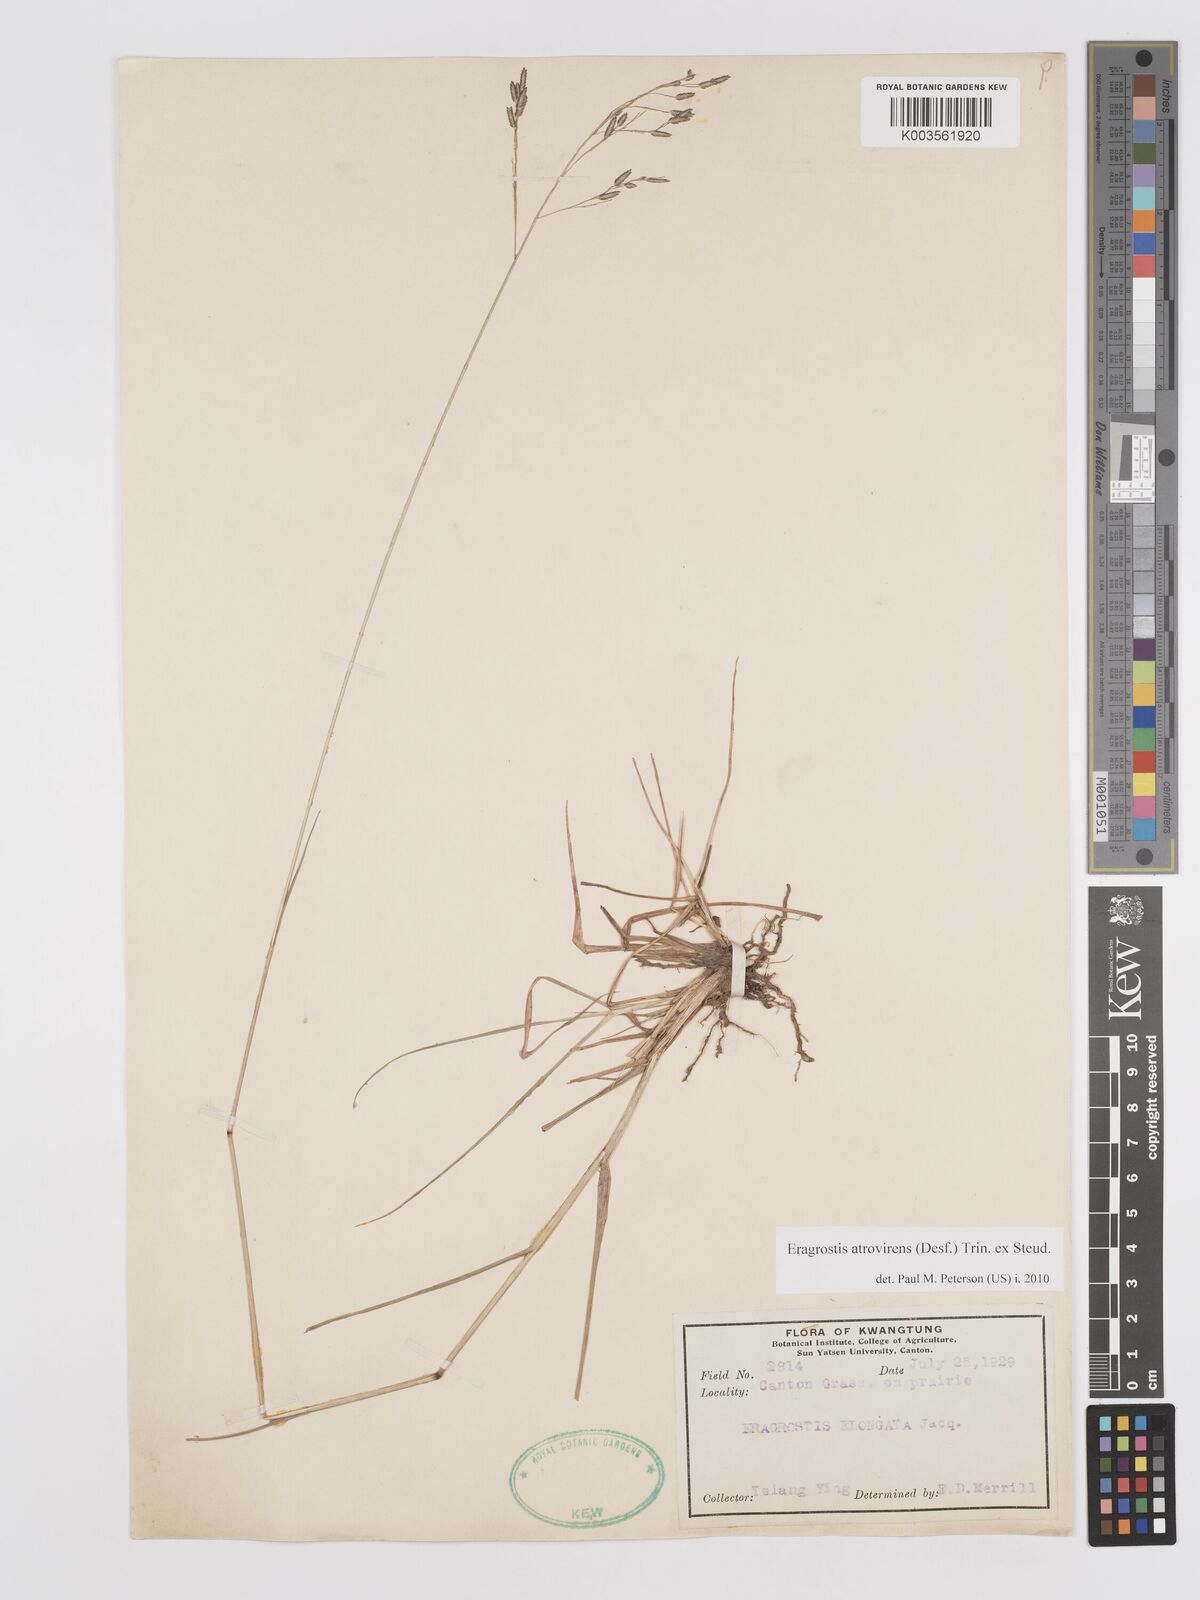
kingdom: Plantae
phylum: Tracheophyta
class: Liliopsida
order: Poales
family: Poaceae
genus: Eragrostis
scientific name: Eragrostis atrovirens
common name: Thalia lovegrass
